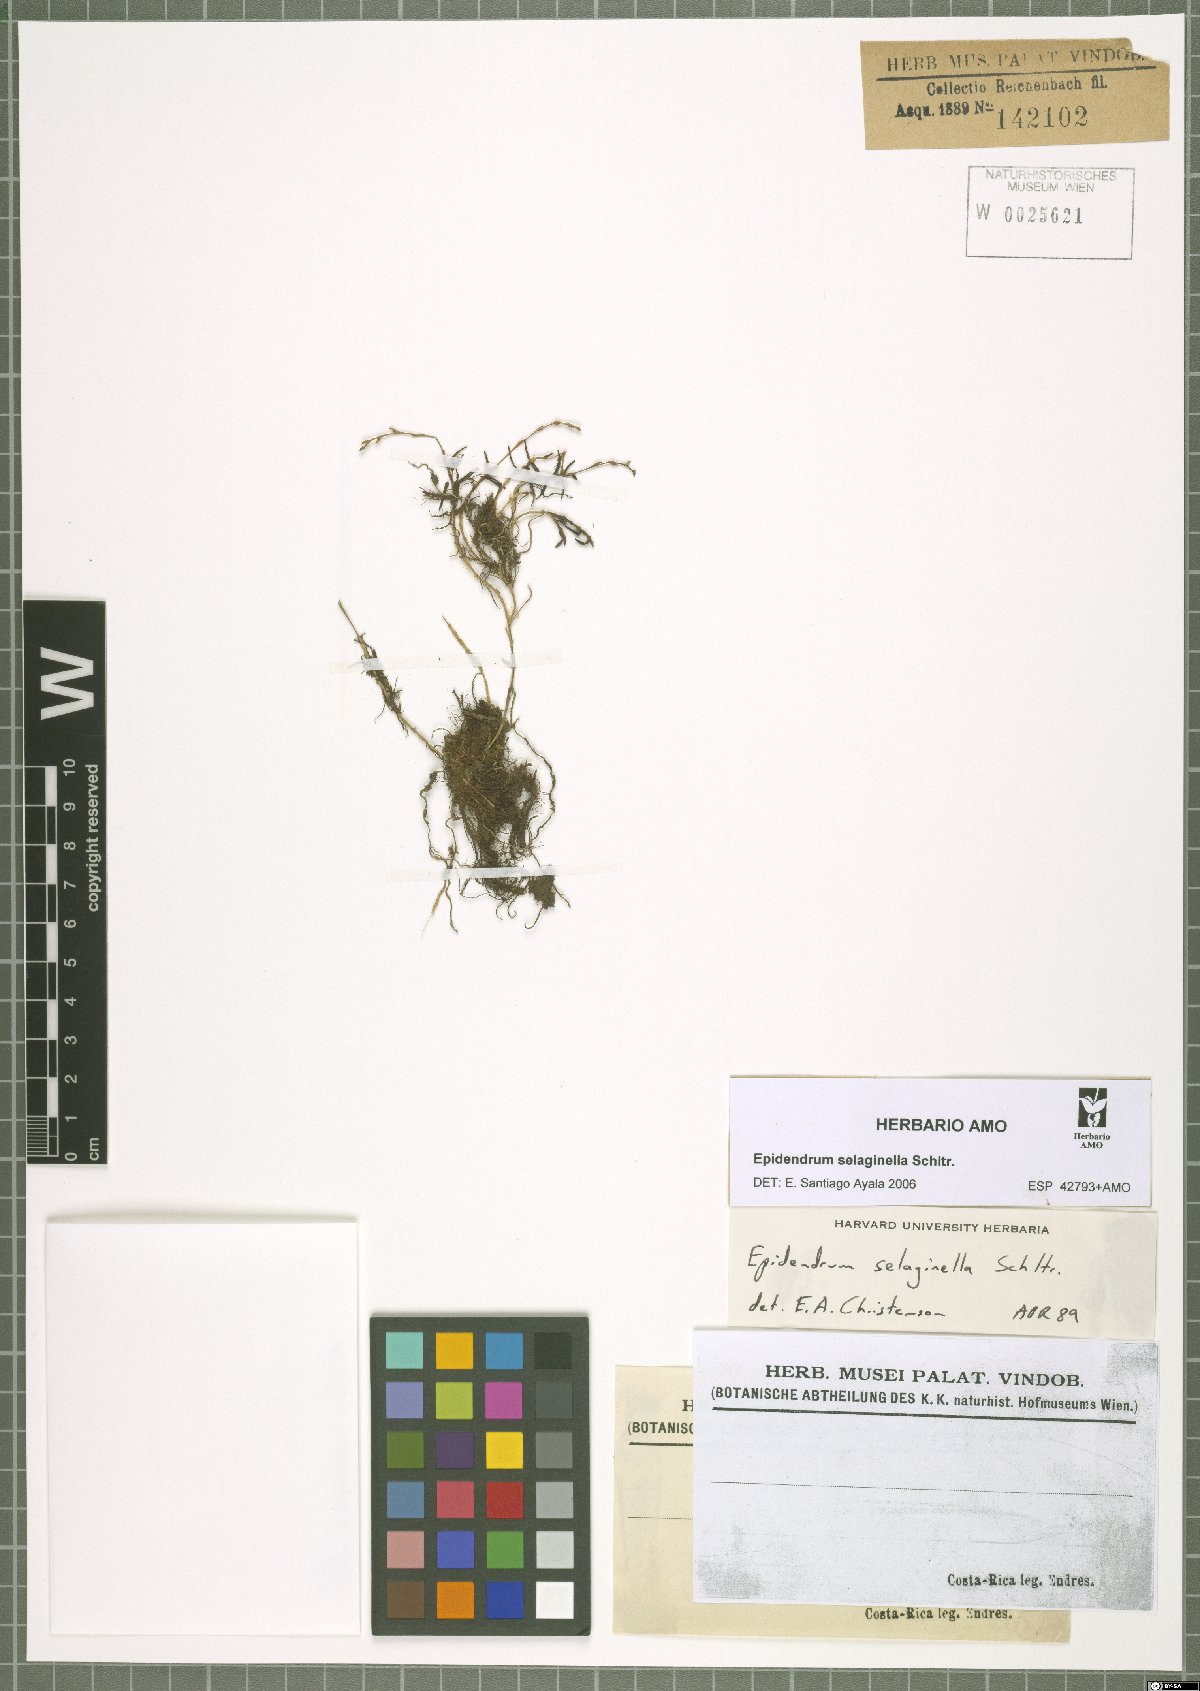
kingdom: Plantae
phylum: Tracheophyta
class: Liliopsida
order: Asparagales
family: Orchidaceae
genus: Epidendrum
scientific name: Epidendrum selaginella
